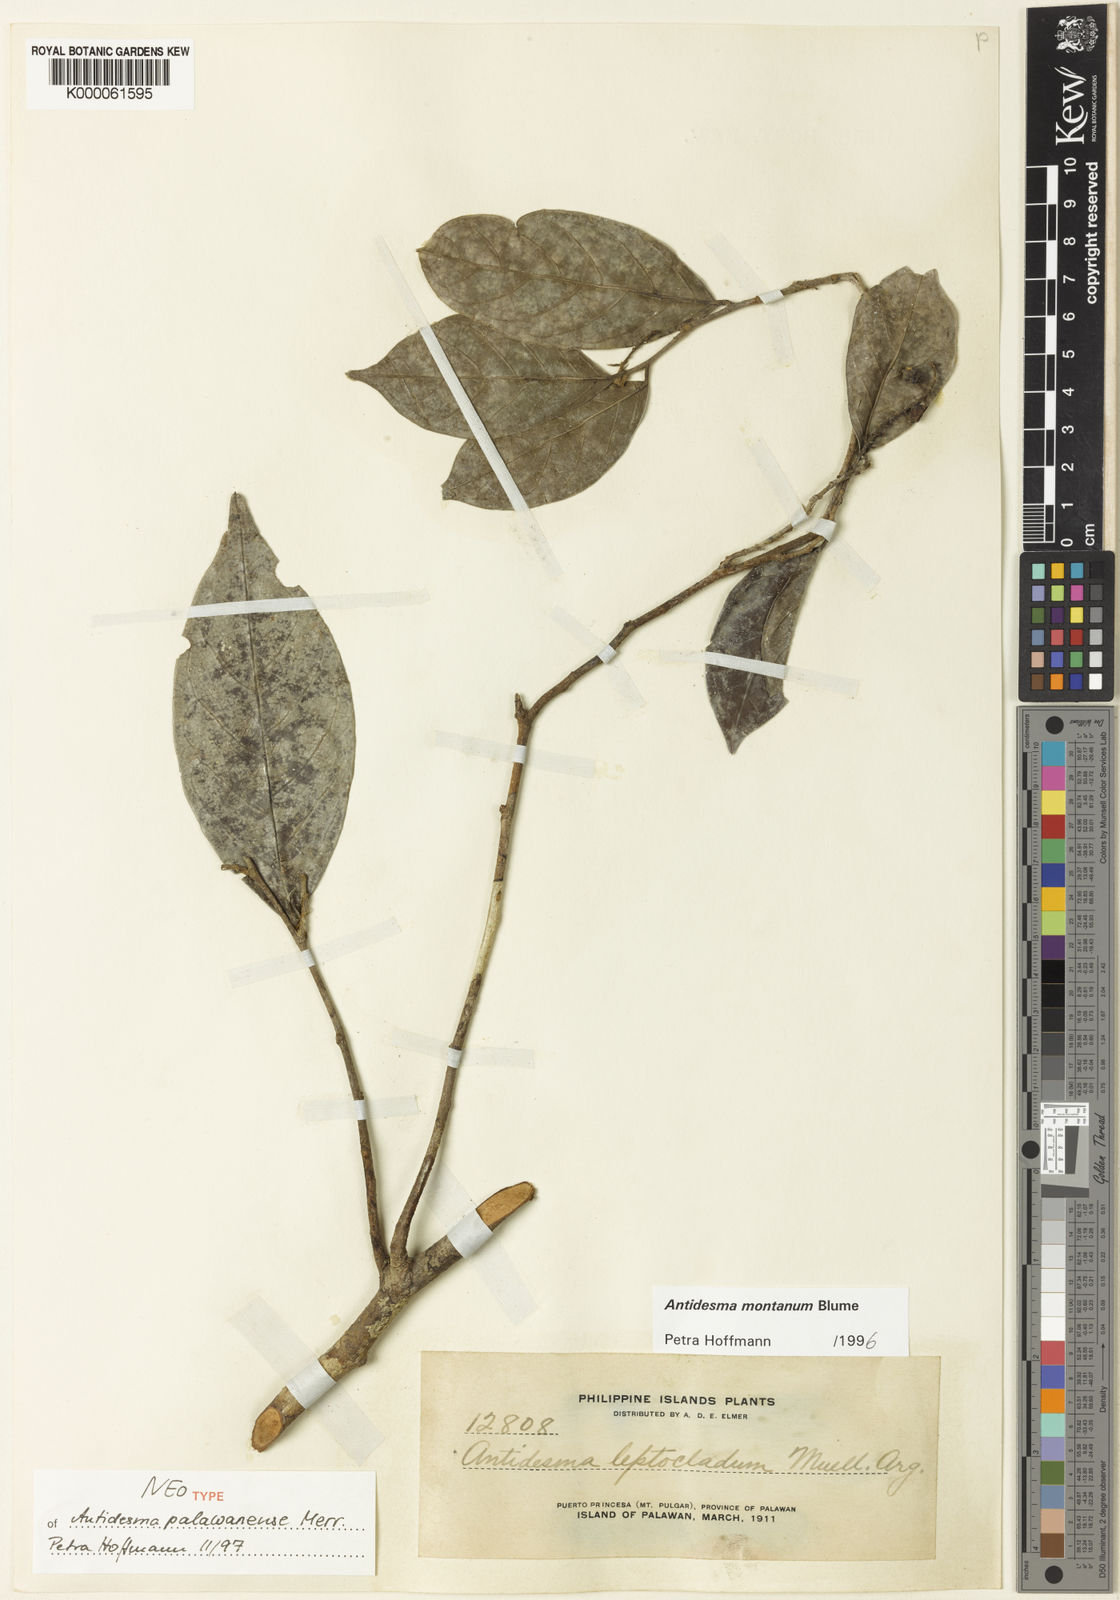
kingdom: Plantae
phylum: Tracheophyta
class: Magnoliopsida
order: Malpighiales
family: Phyllanthaceae
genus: Antidesma
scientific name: Antidesma montanum
